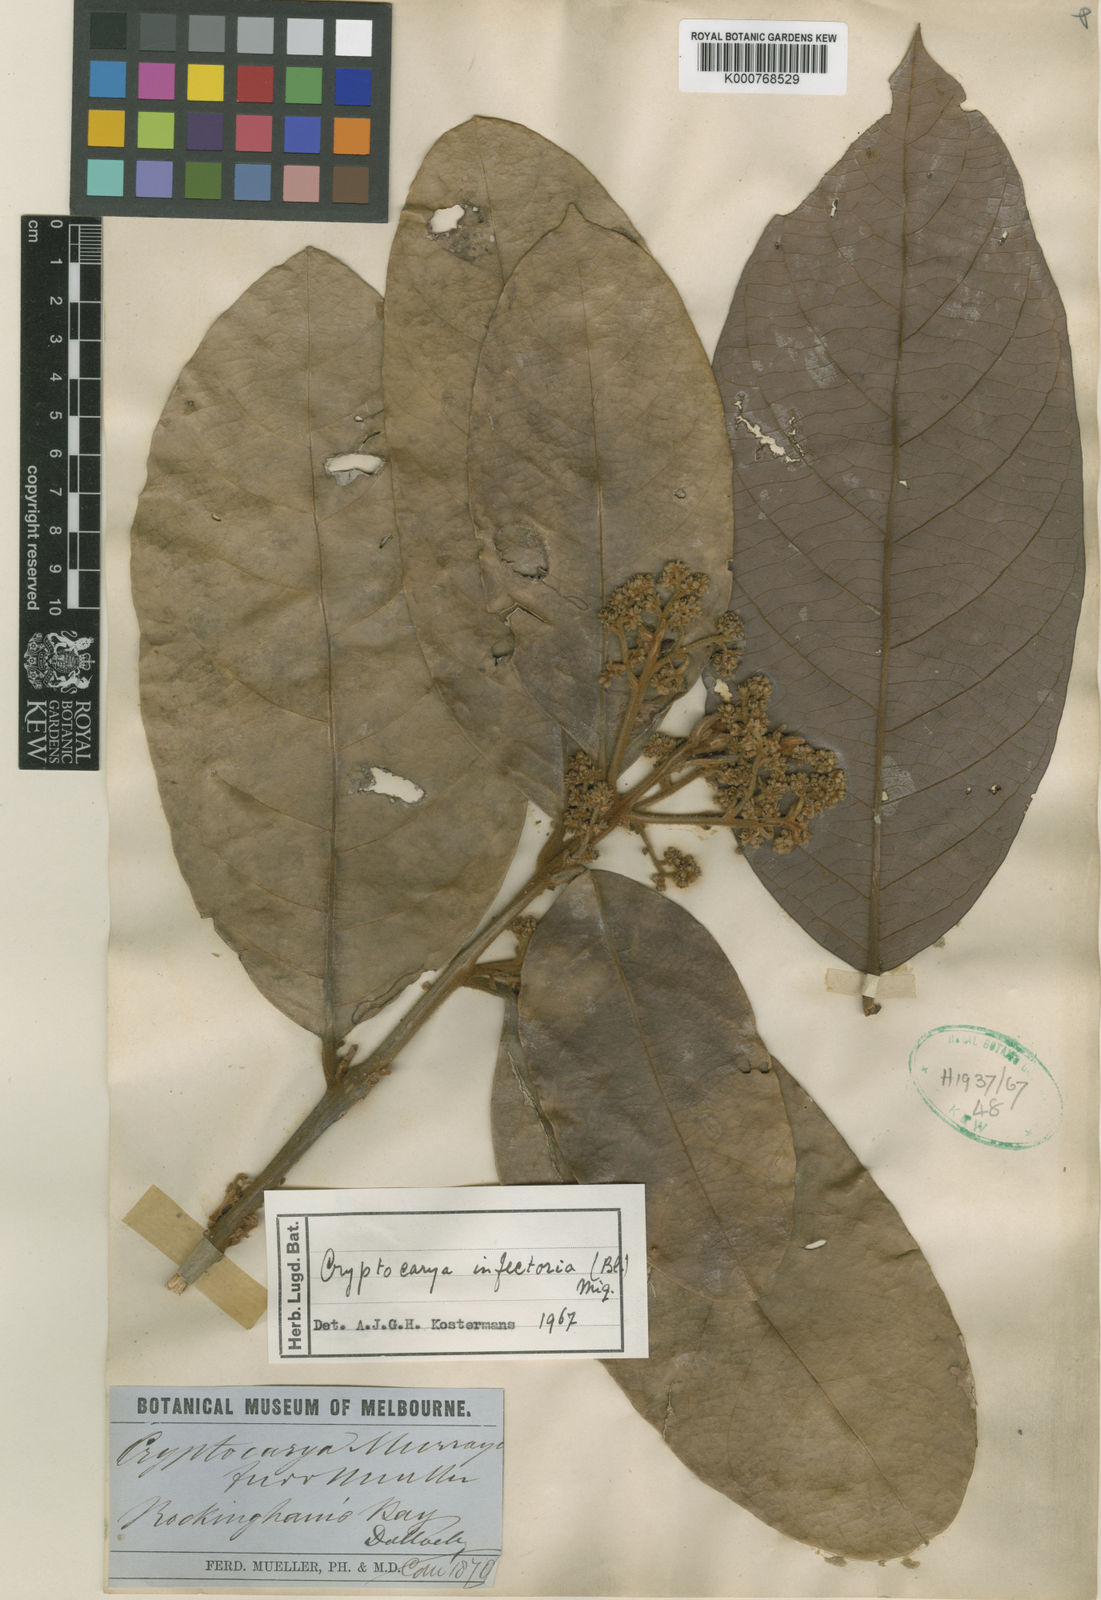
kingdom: Plantae
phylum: Tracheophyta
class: Magnoliopsida
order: Laurales
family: Lauraceae
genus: Cryptocarya
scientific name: Cryptocarya murrayi
